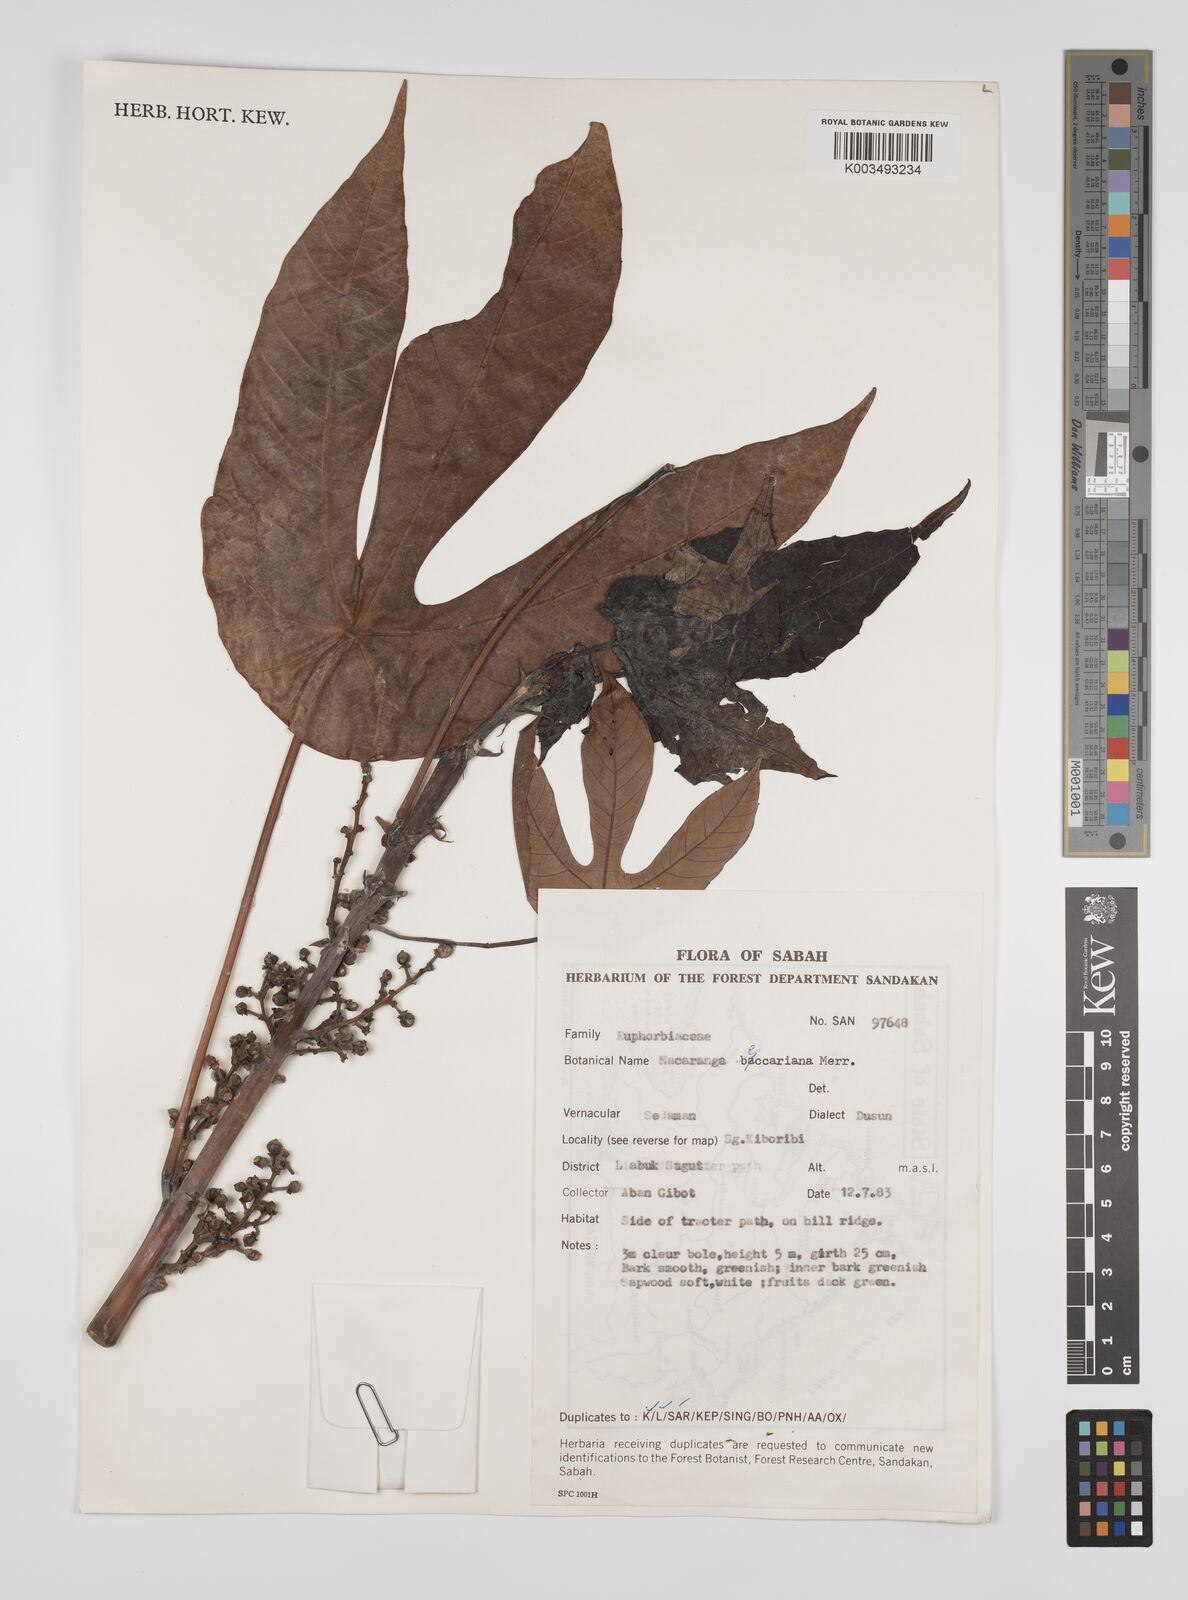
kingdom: Plantae
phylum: Tracheophyta
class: Magnoliopsida
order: Malpighiales
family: Euphorbiaceae
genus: Macaranga
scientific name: Macaranga beccariana
